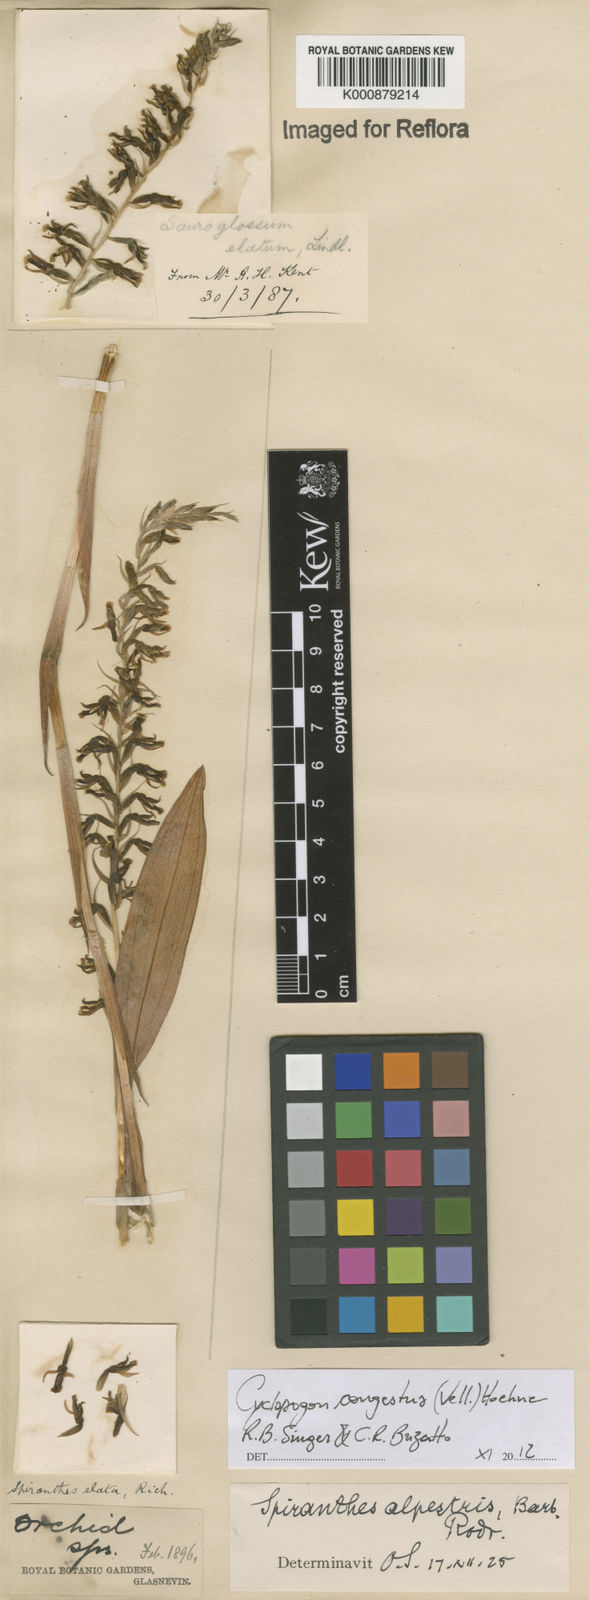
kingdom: Plantae
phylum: Tracheophyta
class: Liliopsida
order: Asparagales
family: Orchidaceae
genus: Cyclopogon
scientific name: Cyclopogon congestus
